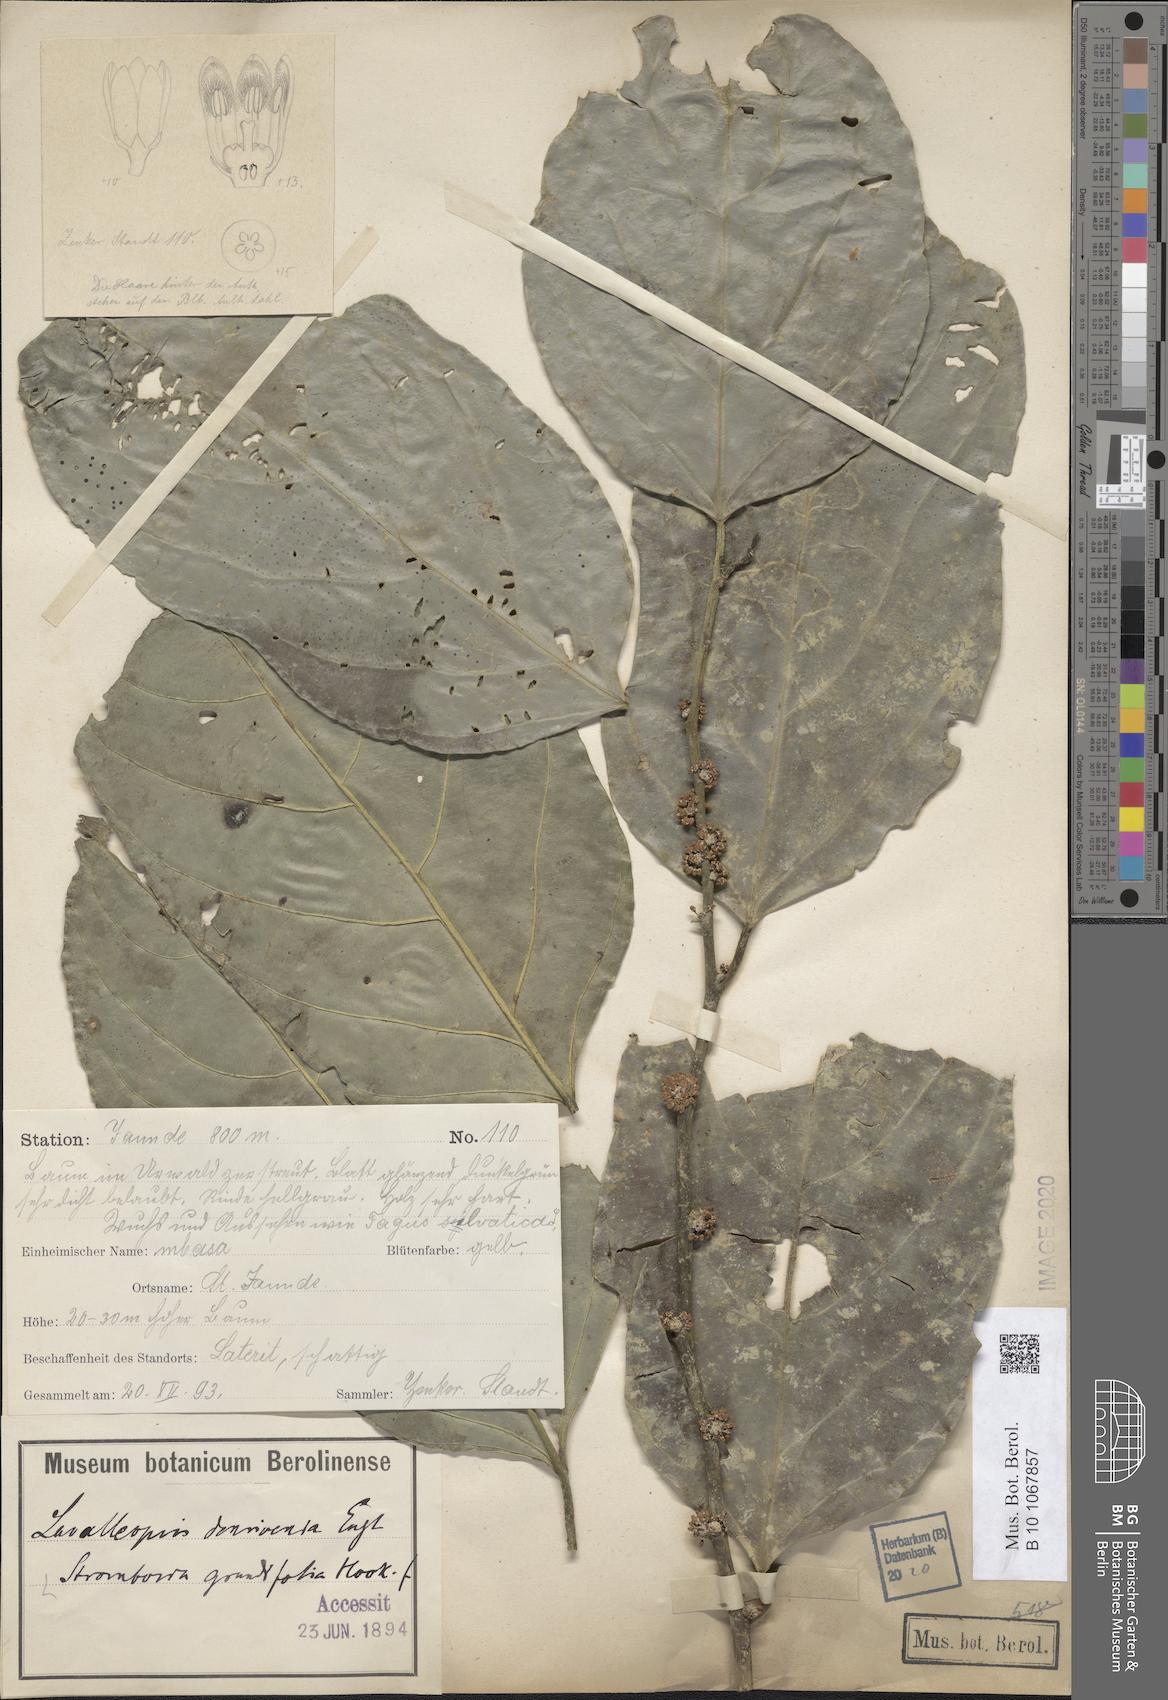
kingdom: Plantae
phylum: Tracheophyta
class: Magnoliopsida
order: Santalales
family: Strombosiaceae
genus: Strombosia
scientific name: Strombosia grandifolia
